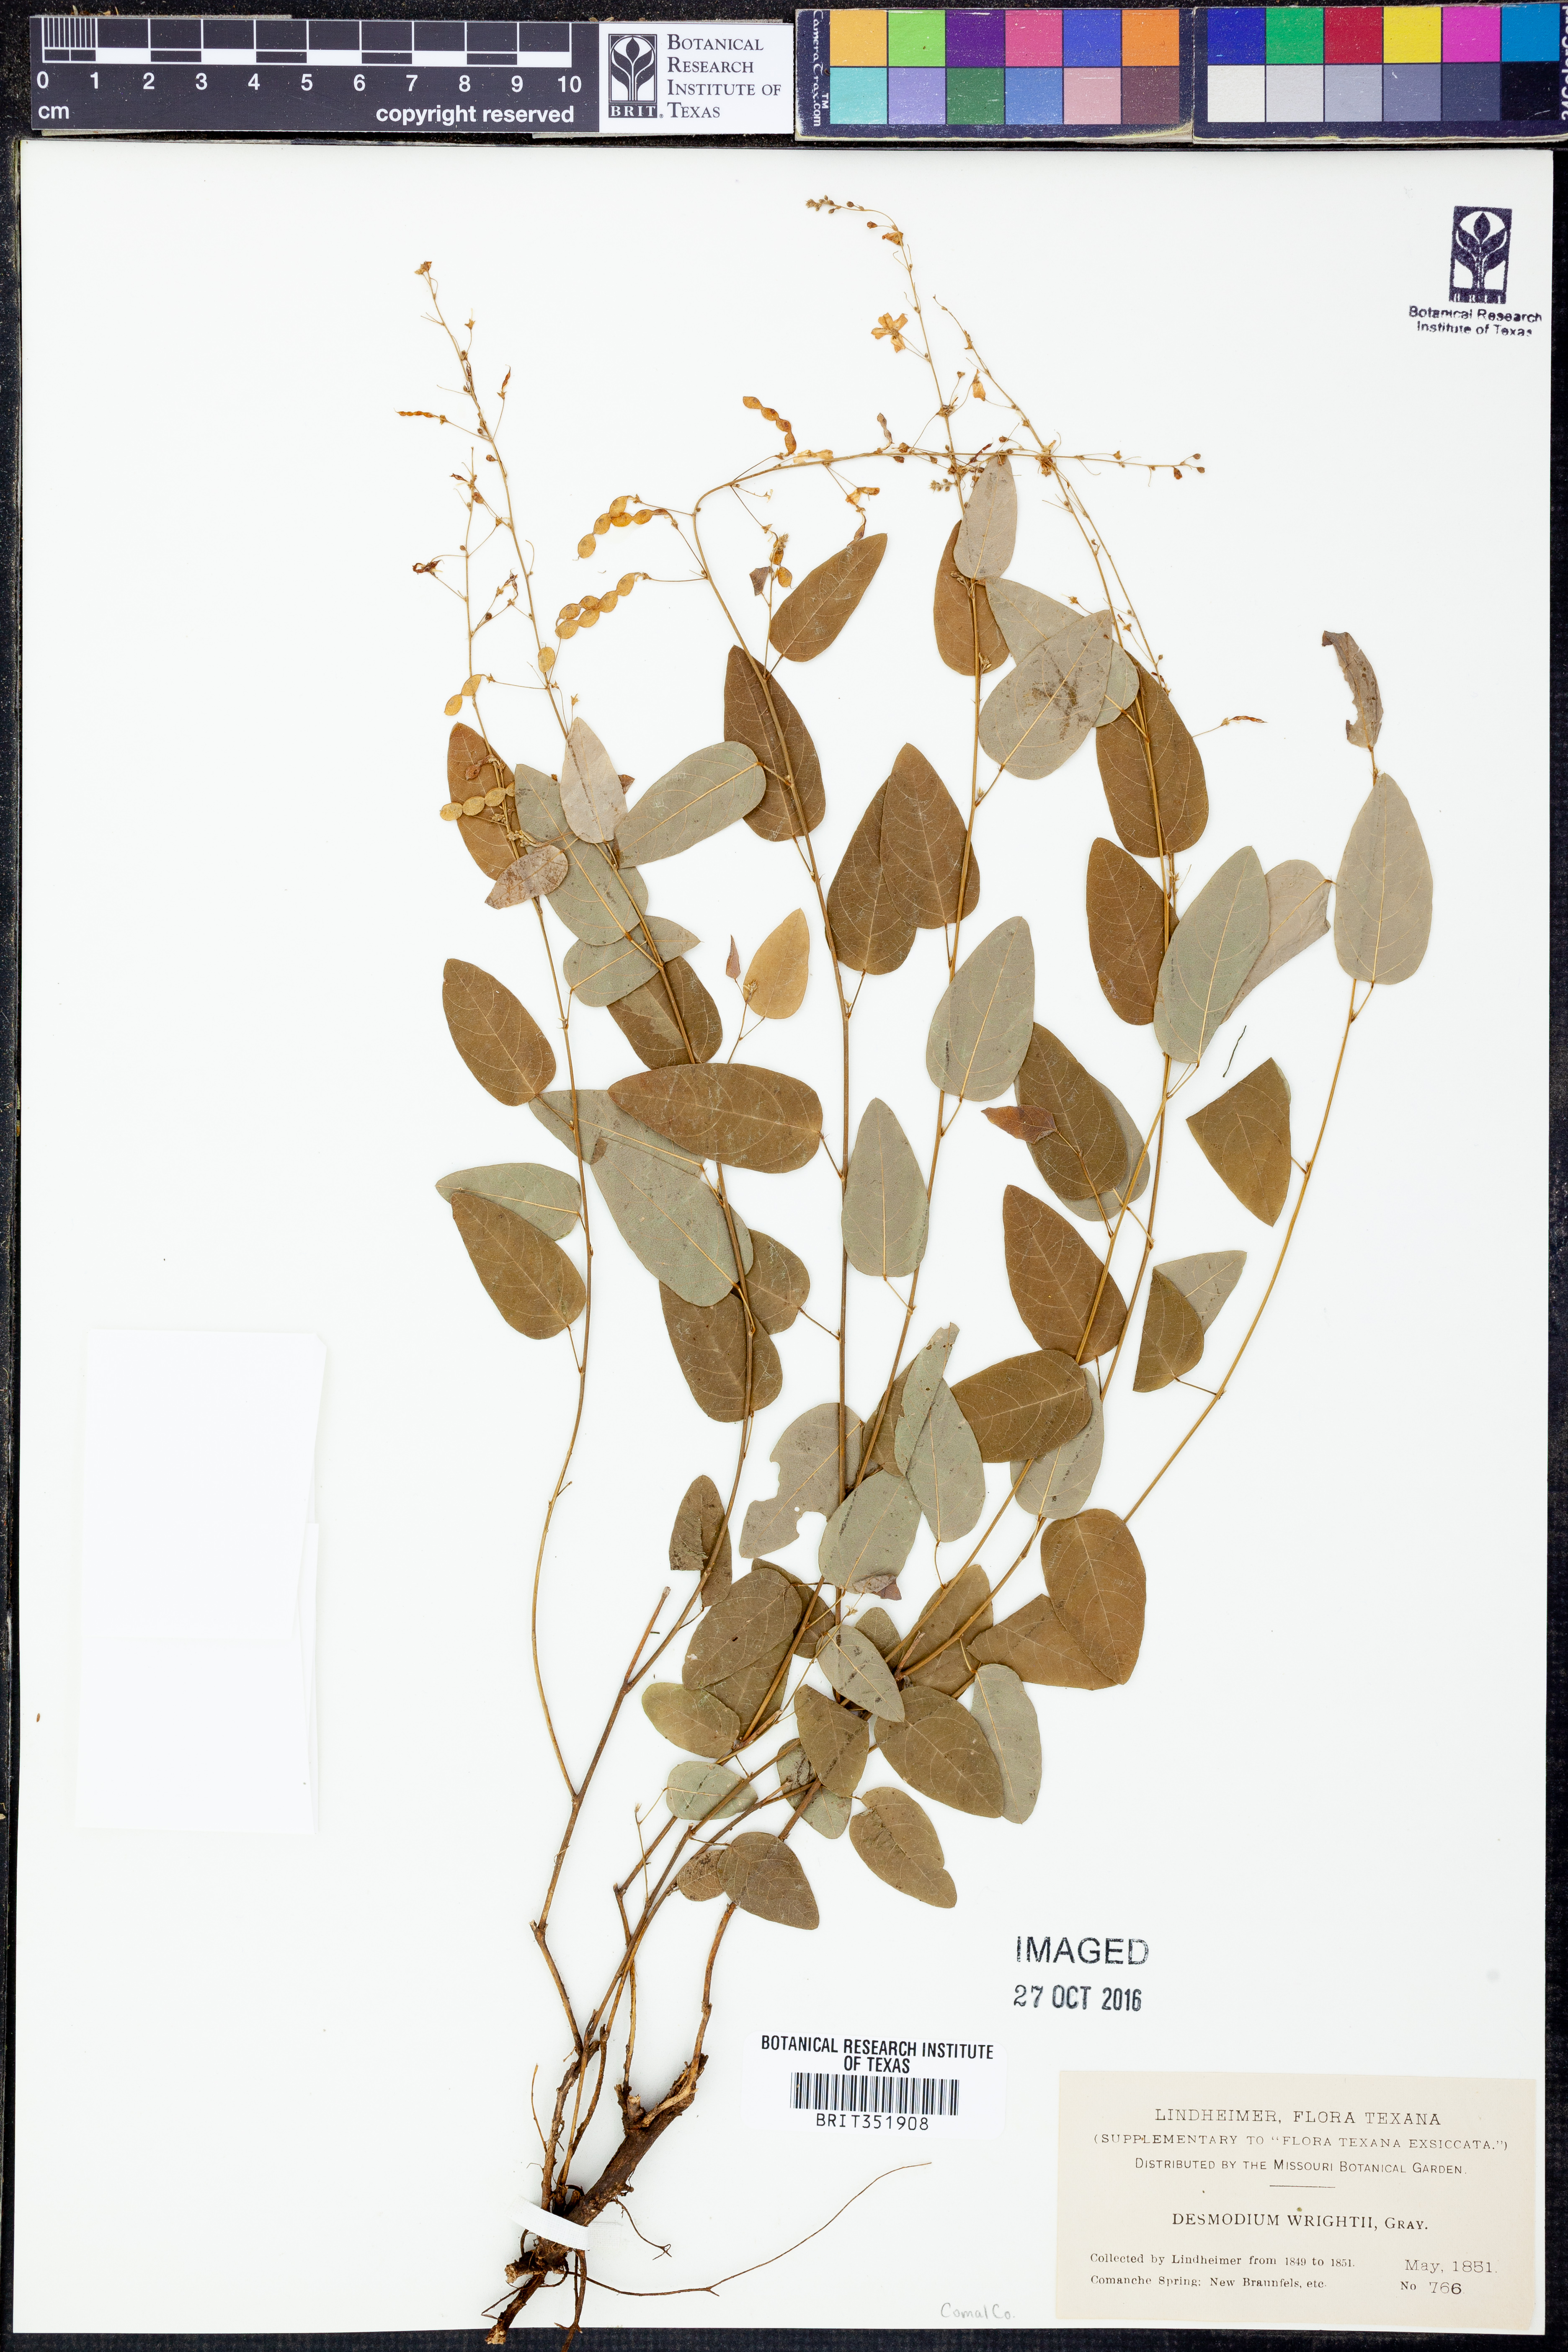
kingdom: Plantae
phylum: Tracheophyta
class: Magnoliopsida
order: Fabales
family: Fabaceae
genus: Desmodium
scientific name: Desmodium psilophyllum
